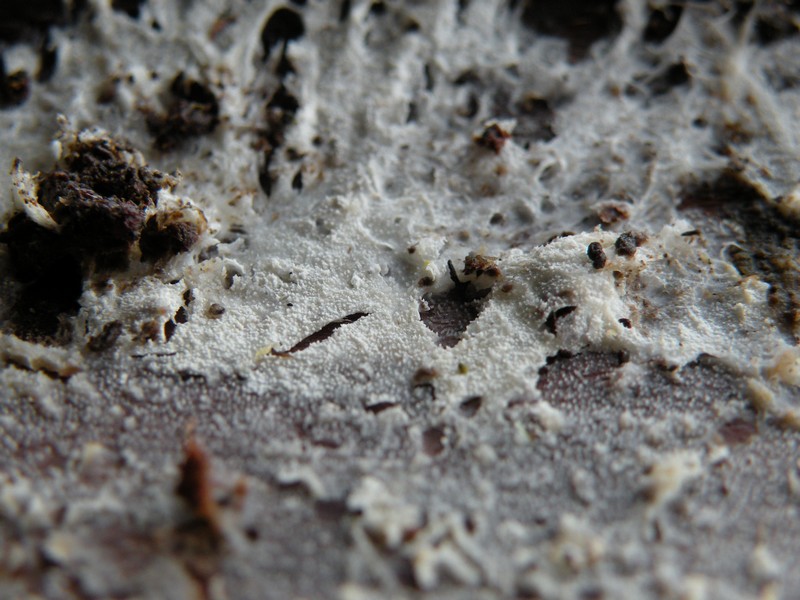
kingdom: Fungi
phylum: Basidiomycota
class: Agaricomycetes
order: Hymenochaetales
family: Rickenellaceae
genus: Resinicium
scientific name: Resinicium bicolor
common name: almindelig vokstand
